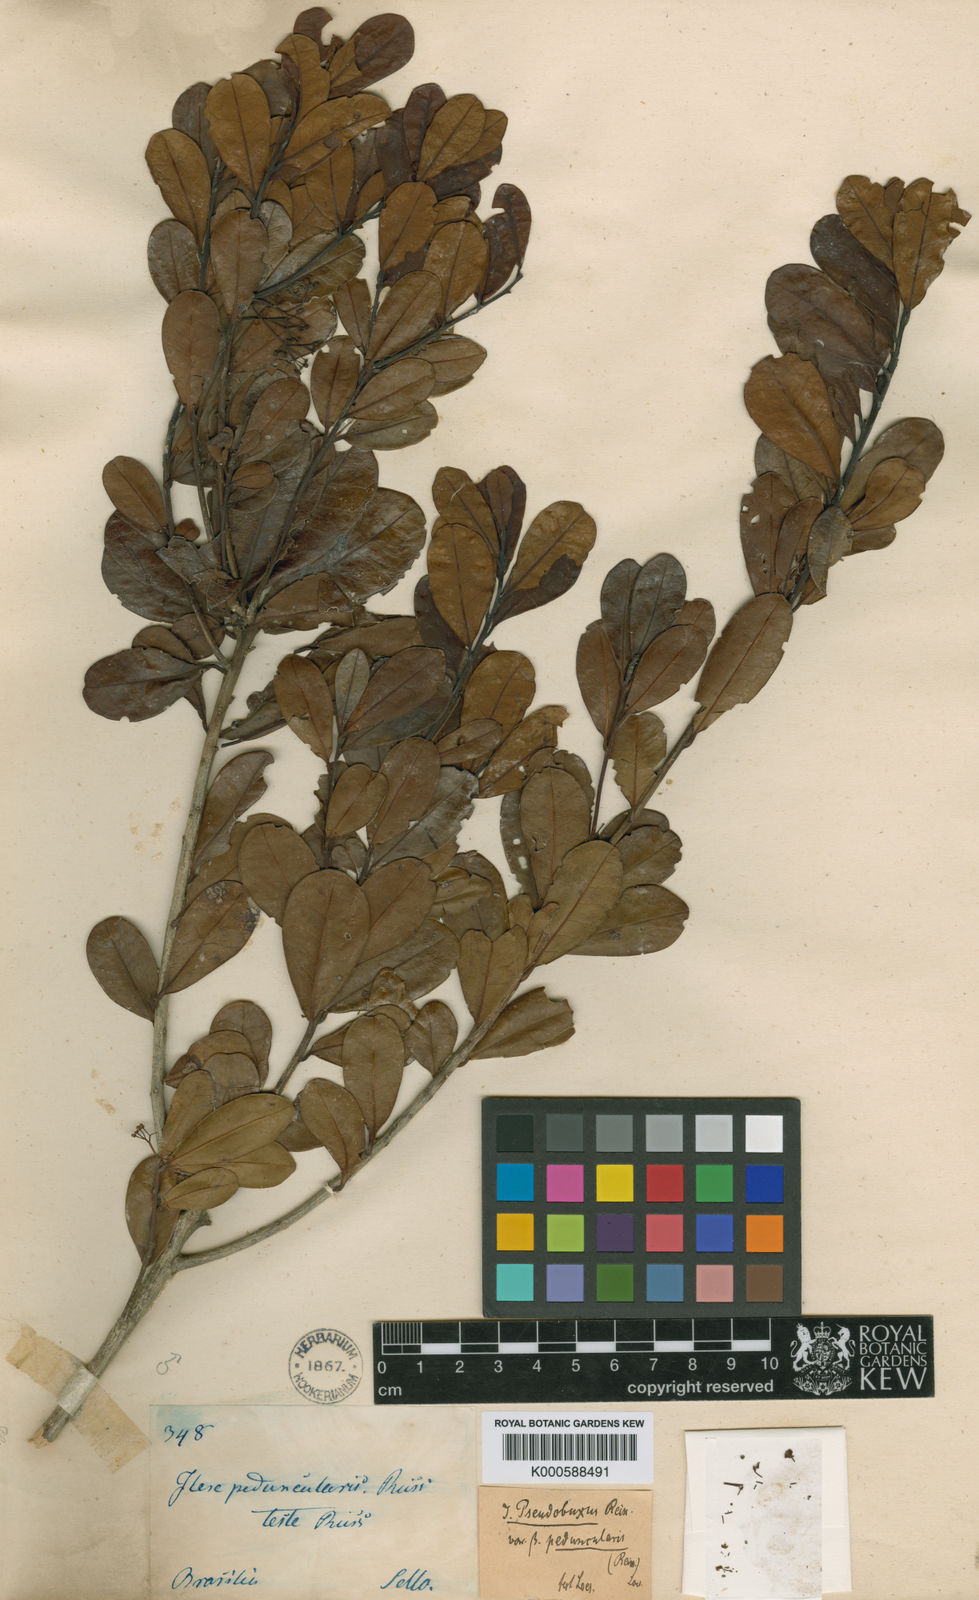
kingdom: Plantae
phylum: Tracheophyta
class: Magnoliopsida
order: Aquifoliales
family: Aquifoliaceae
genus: Ilex
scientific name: Ilex pseudobuxus
